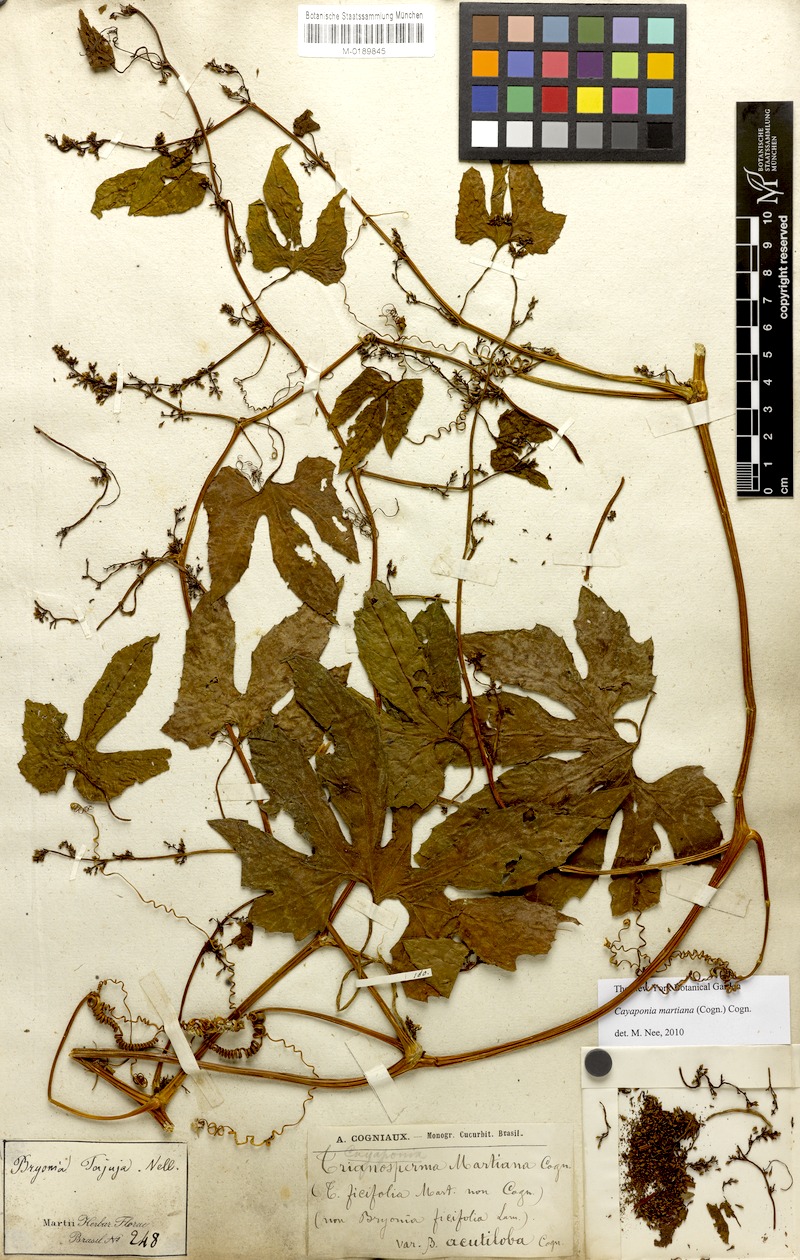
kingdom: Plantae
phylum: Tracheophyta
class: Magnoliopsida
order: Cucurbitales
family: Cucurbitaceae
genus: Cayaponia
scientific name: Cayaponia martiana
